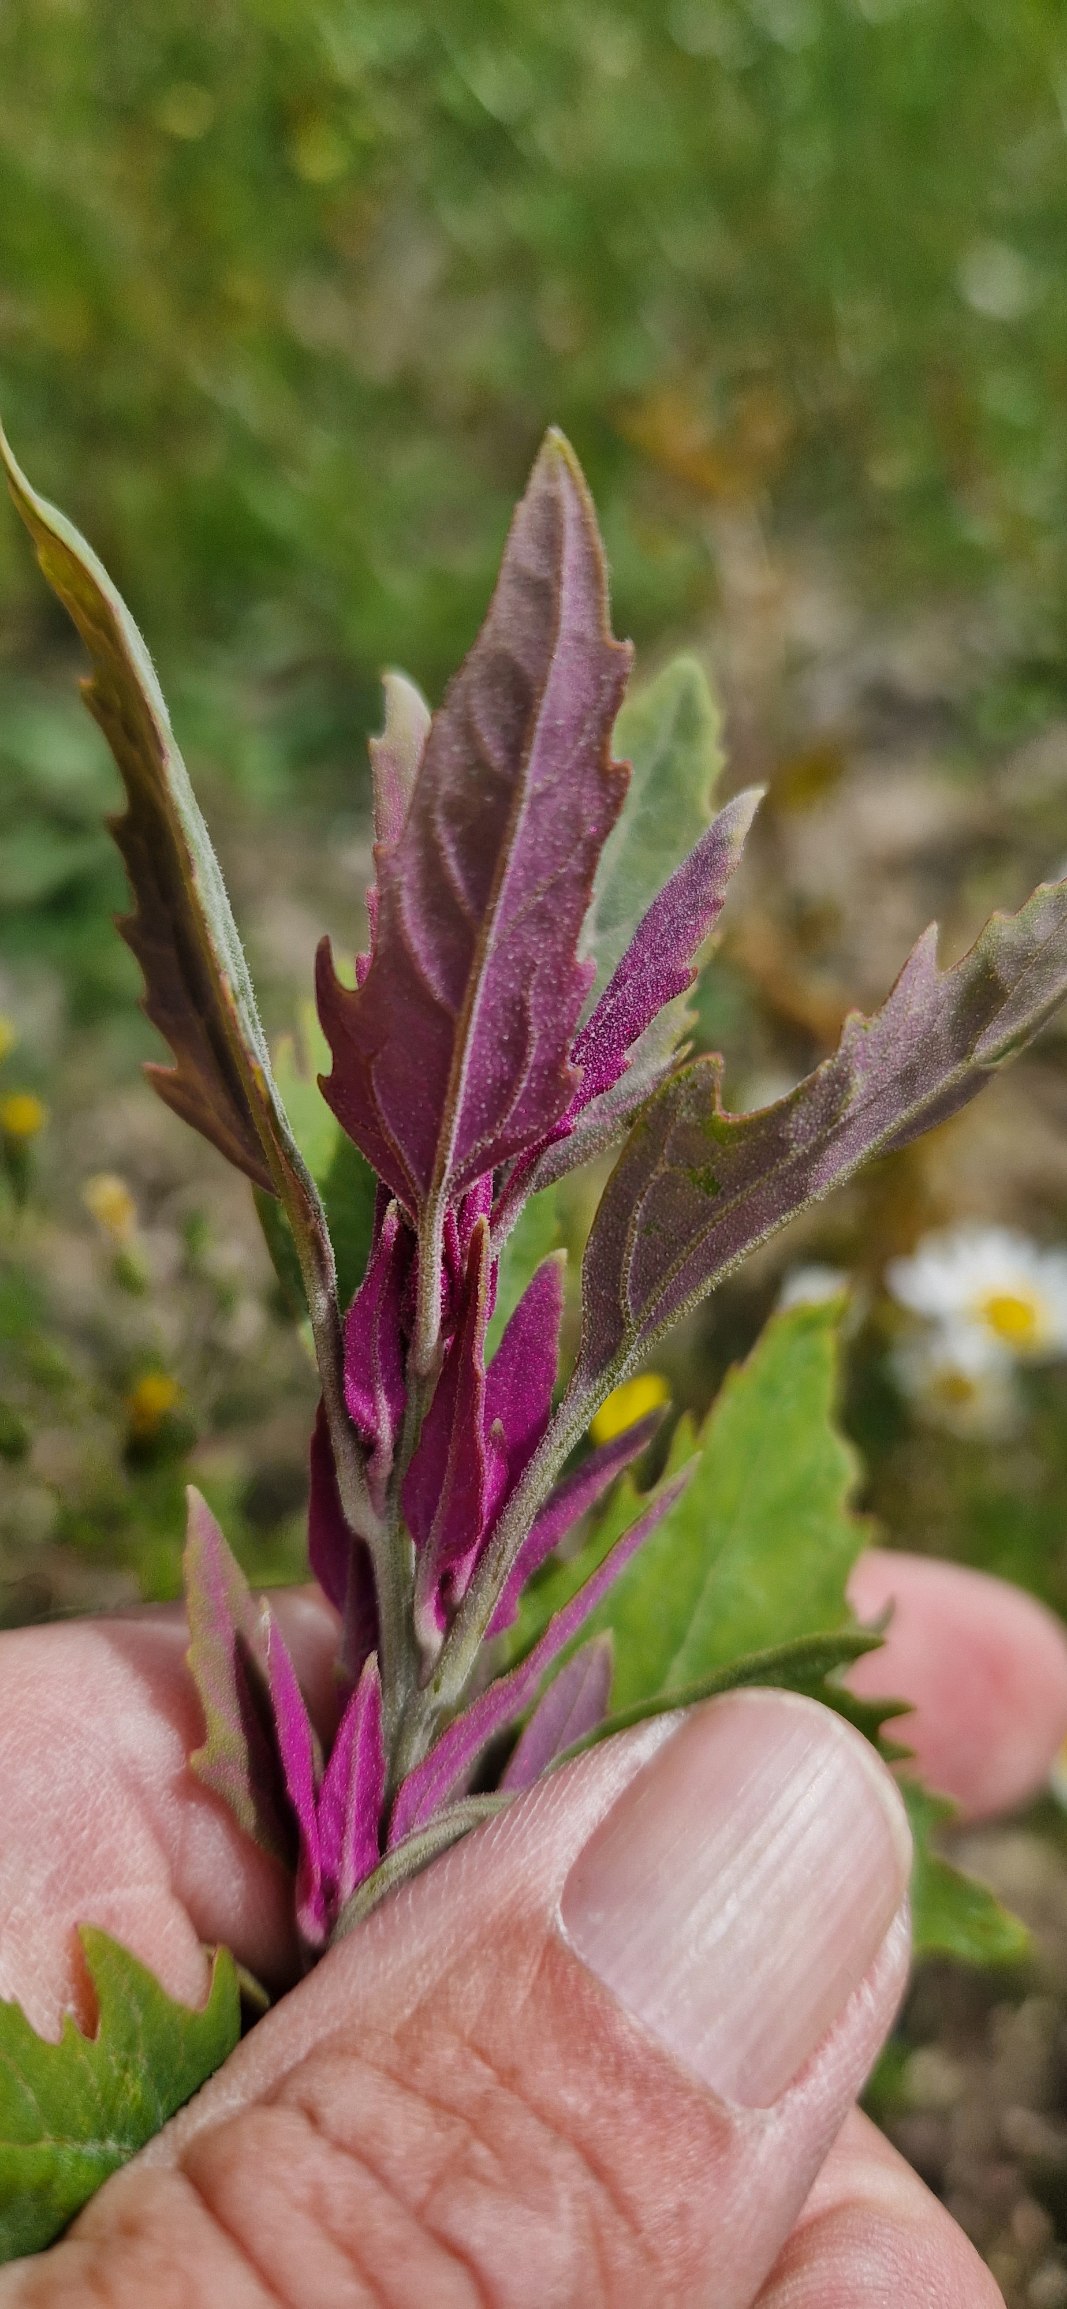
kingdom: Plantae
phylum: Tracheophyta
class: Magnoliopsida
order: Caryophyllales
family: Amaranthaceae
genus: Chenopodium
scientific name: Chenopodium giganteum
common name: Kæmpe-gåsefod
